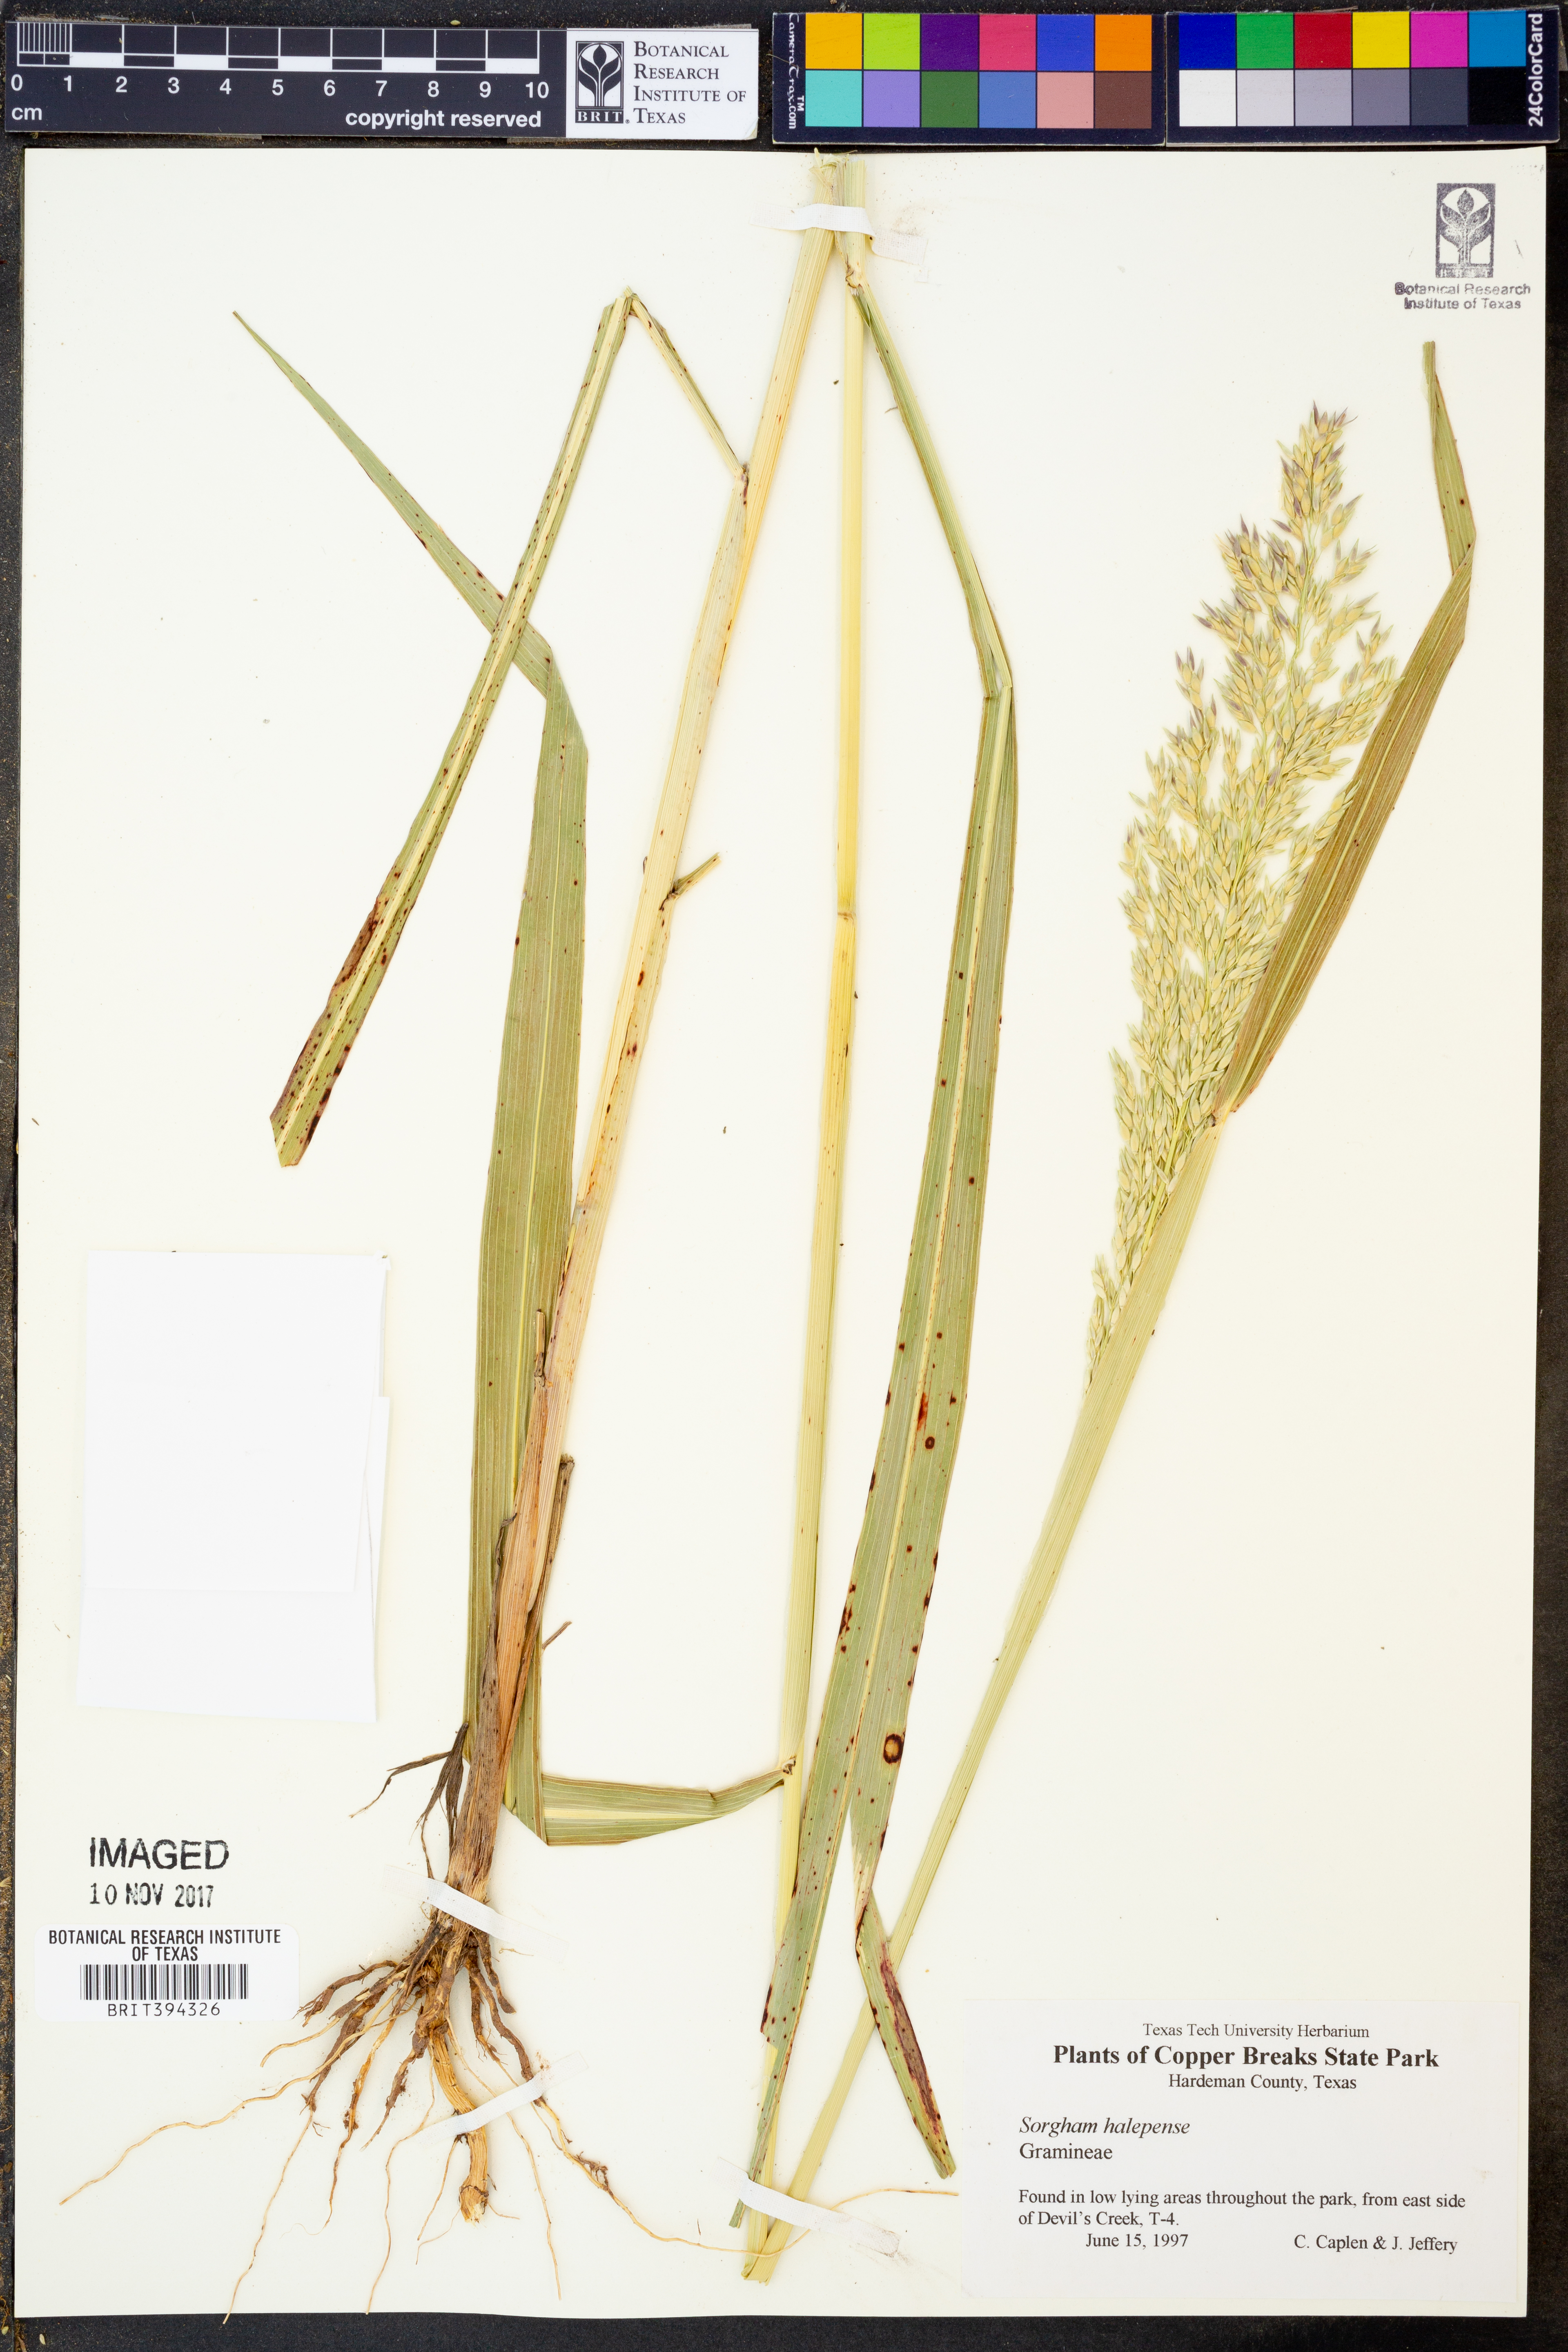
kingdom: Plantae
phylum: Tracheophyta
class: Liliopsida
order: Poales
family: Poaceae
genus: Sorghum
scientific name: Sorghum halepense
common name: Johnson-grass
